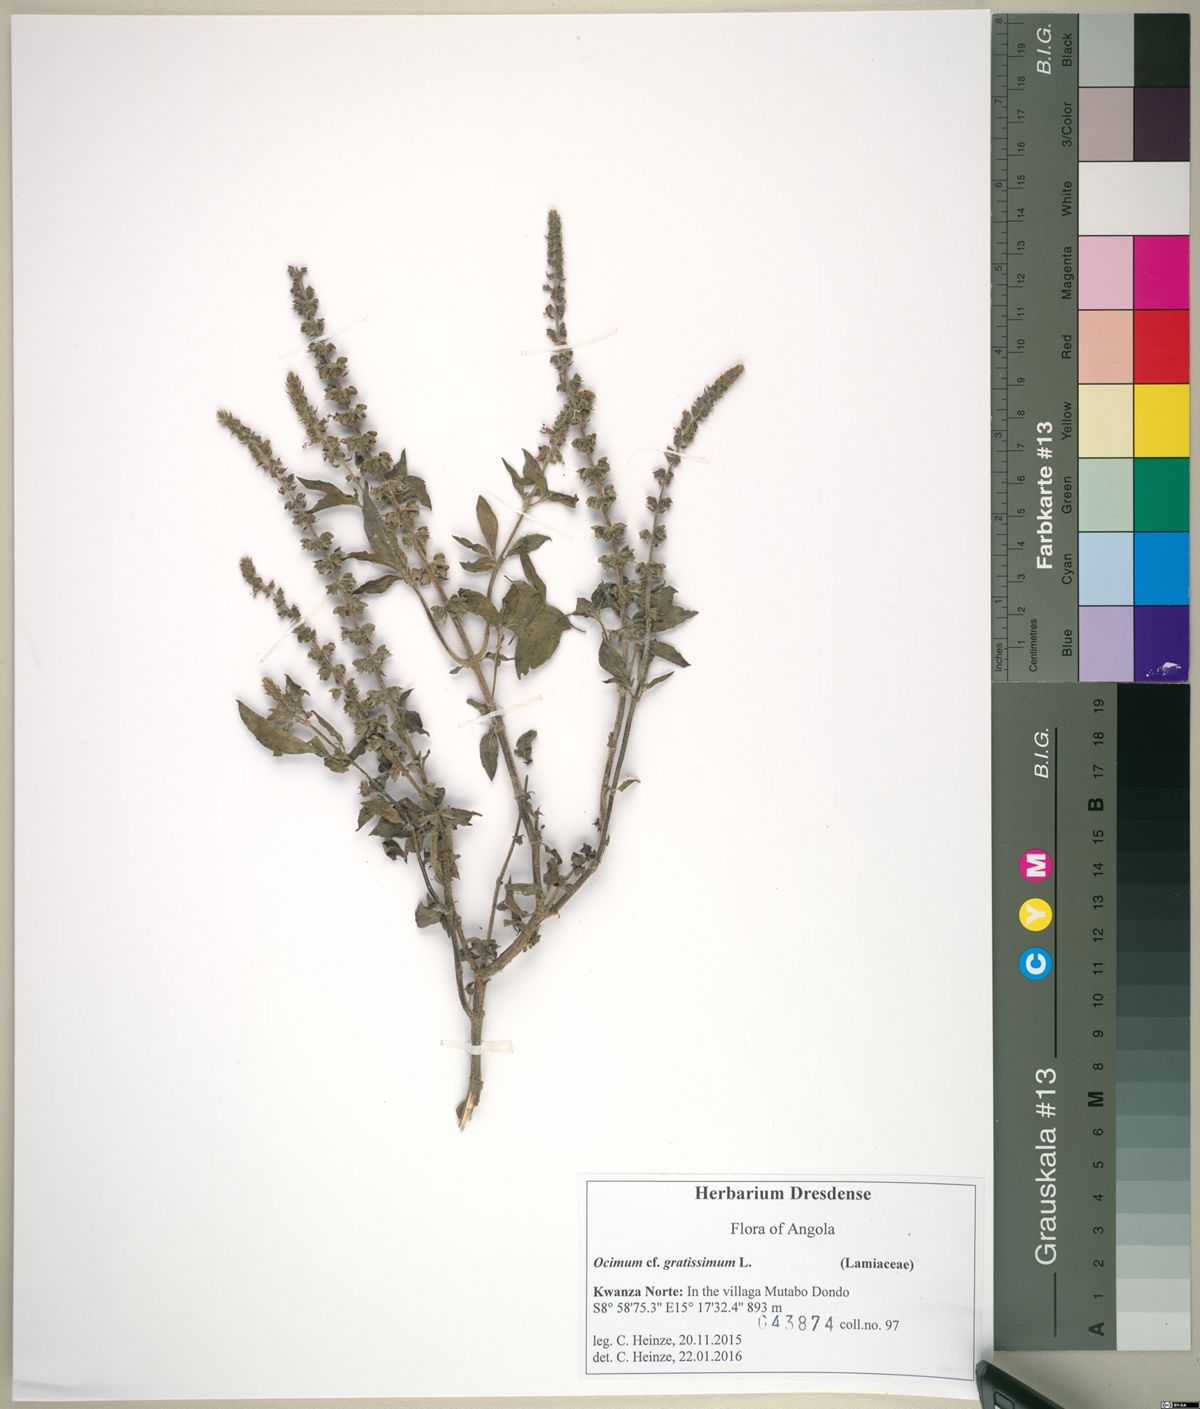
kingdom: Plantae
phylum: Tracheophyta
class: Magnoliopsida
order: Lamiales
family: Lamiaceae
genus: Ocimum
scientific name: Ocimum americanum
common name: American basil
